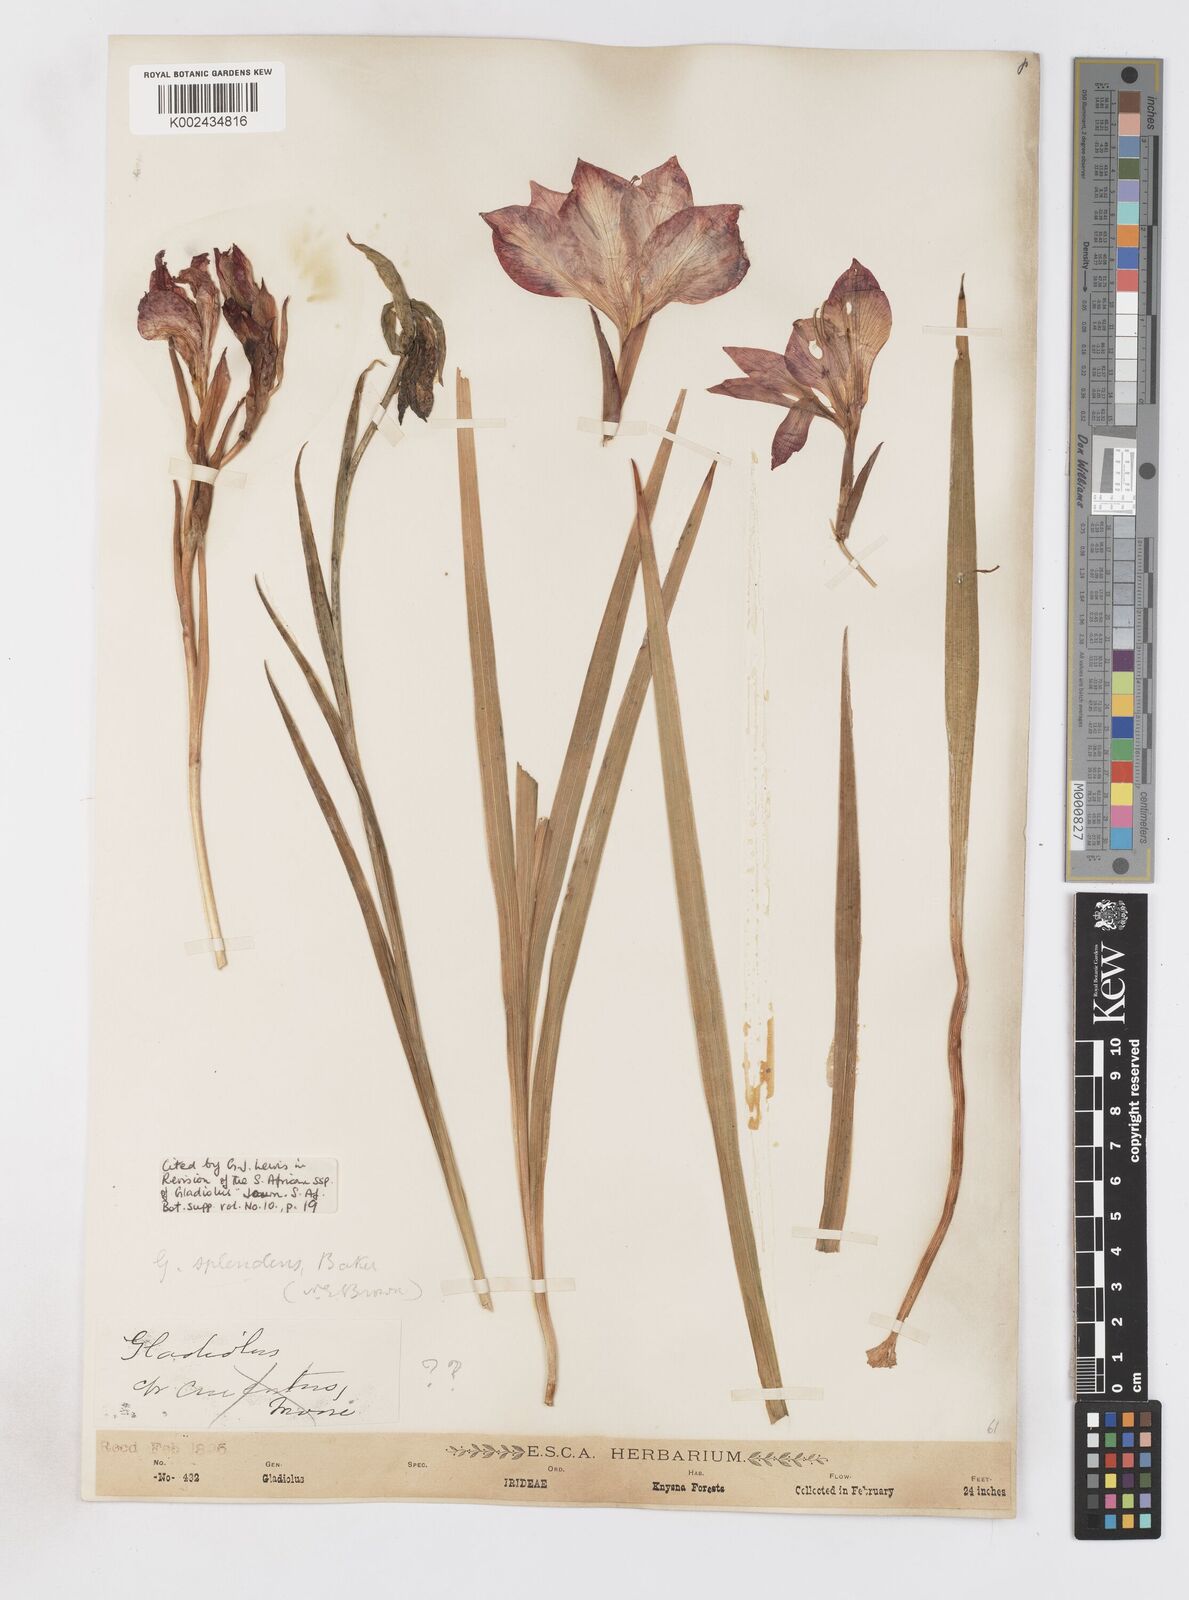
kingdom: Plantae
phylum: Tracheophyta
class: Liliopsida
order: Asparagales
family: Iridaceae
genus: Gladiolus
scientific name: Gladiolus sempervirens
